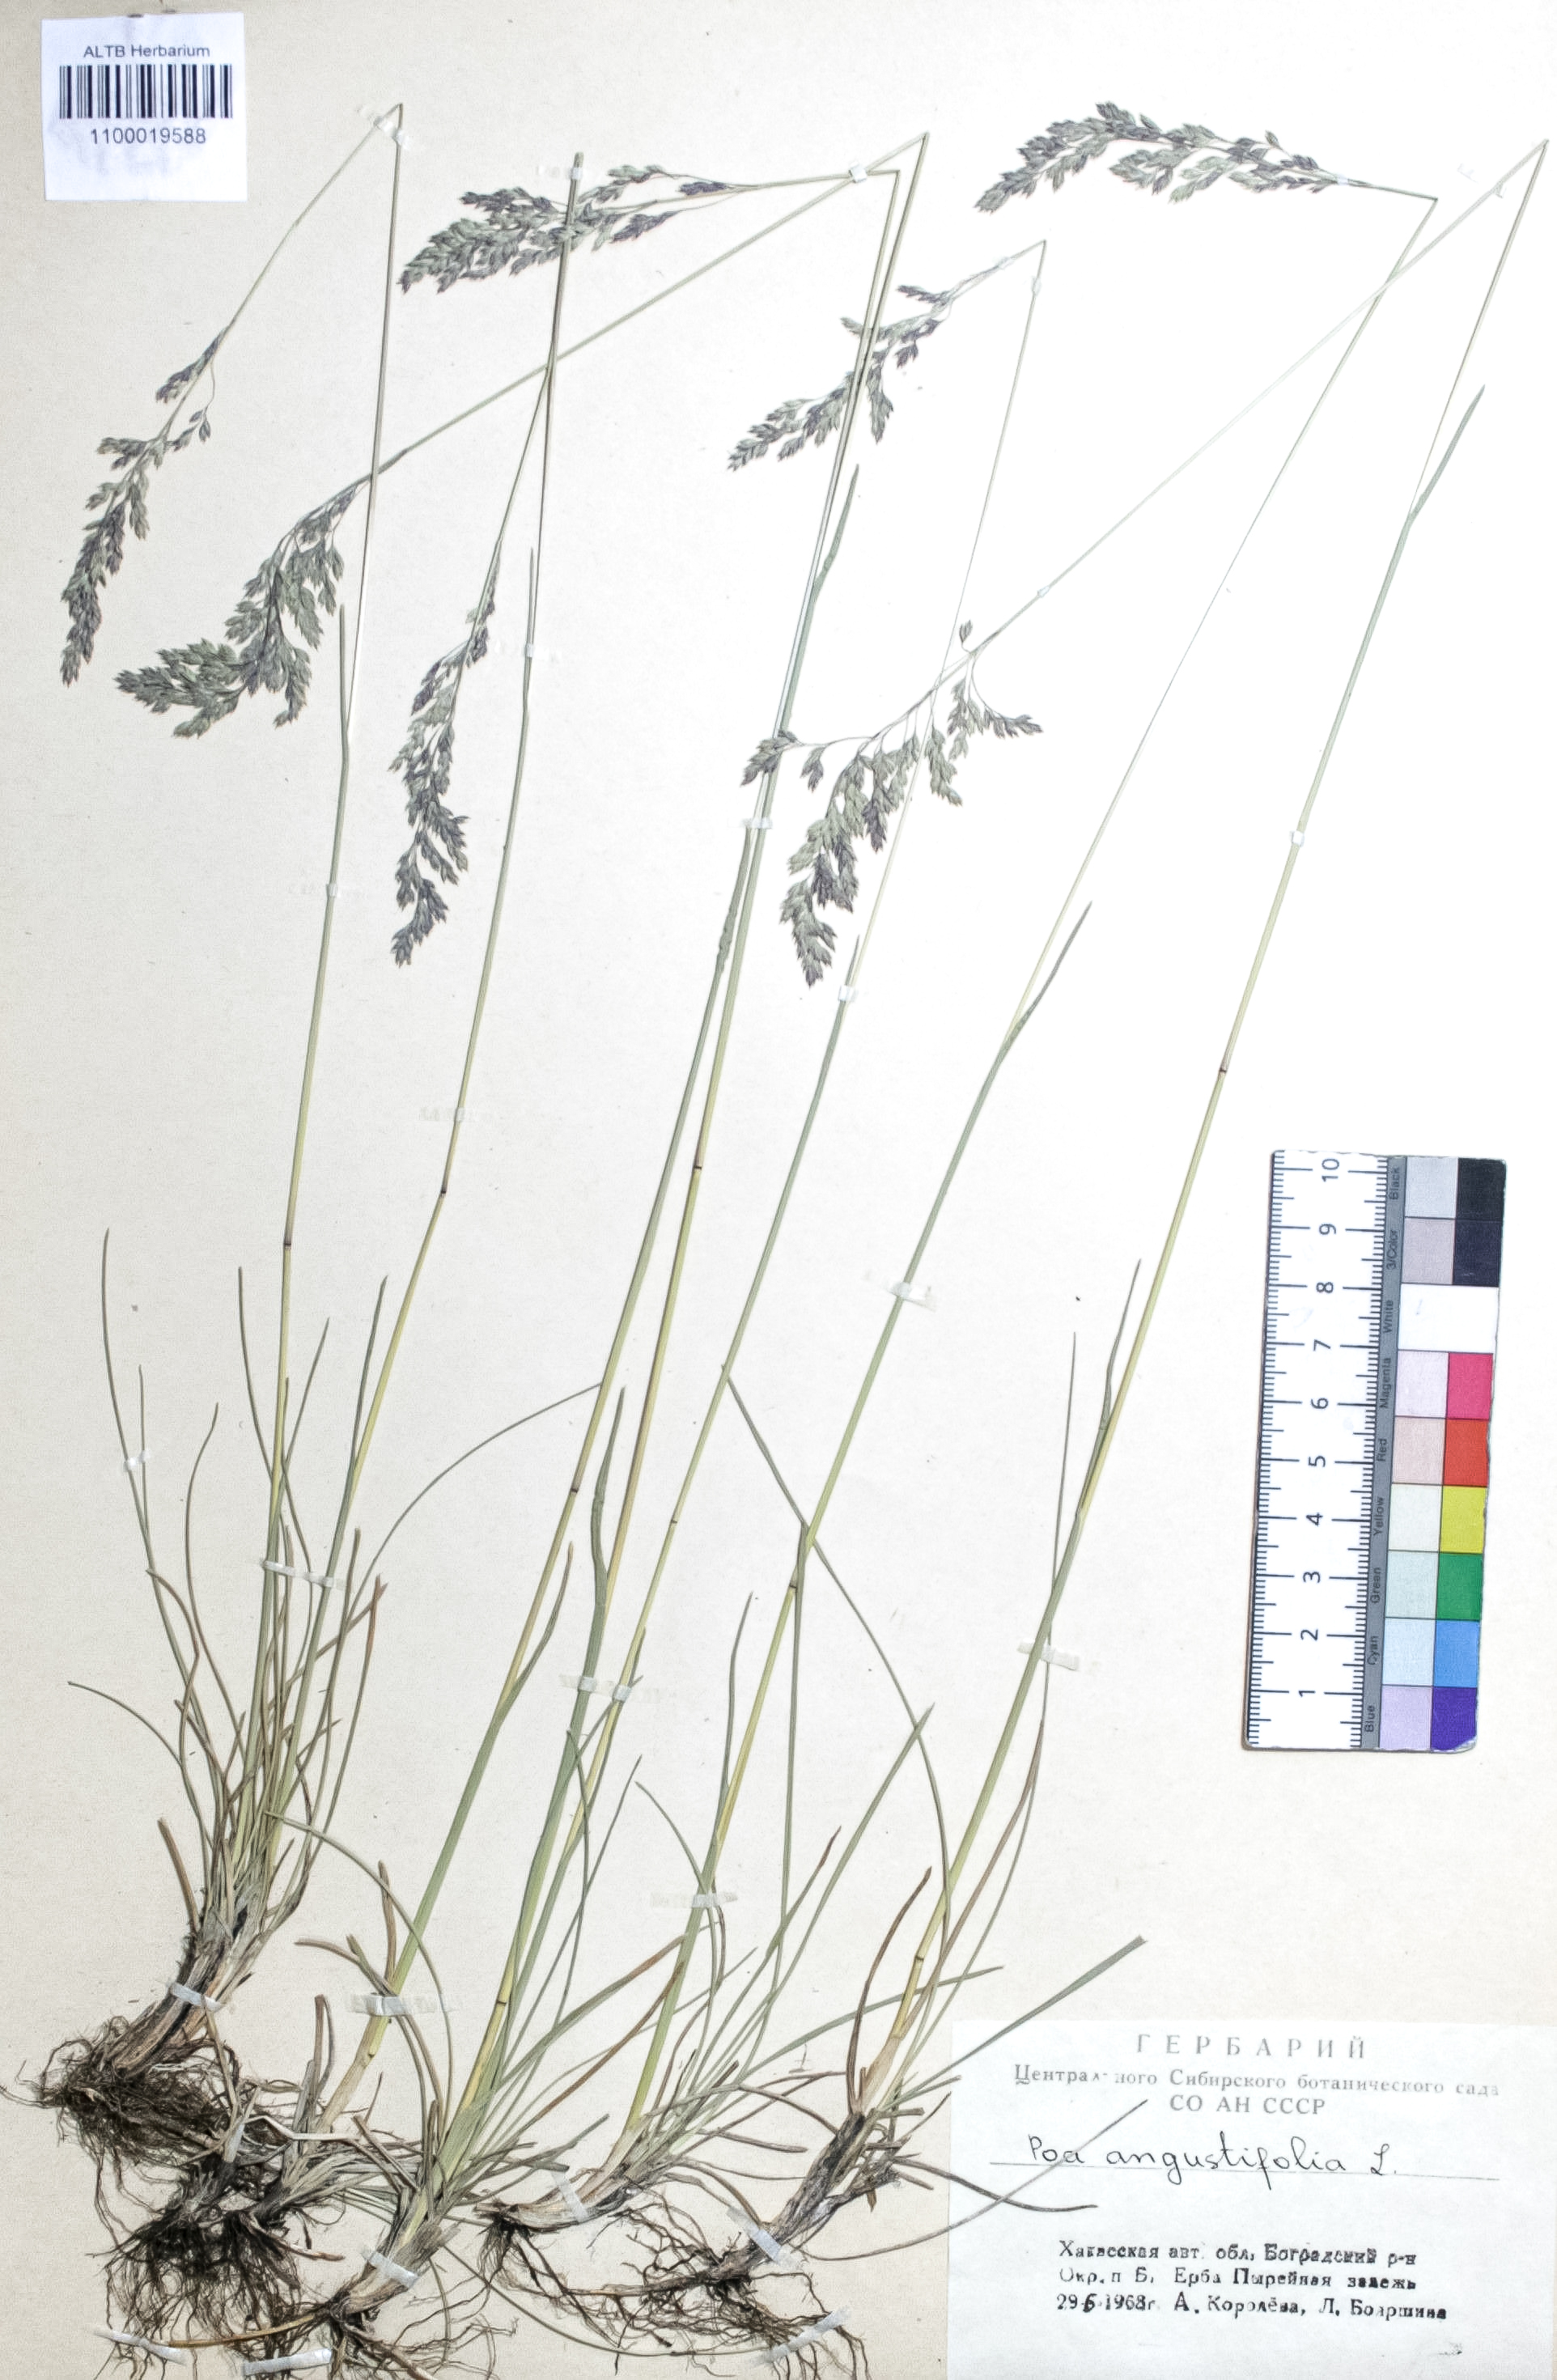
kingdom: Plantae
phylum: Tracheophyta
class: Liliopsida
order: Poales
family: Poaceae
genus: Poa
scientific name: Poa angustifolia
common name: Narrow-leaved meadow-grass
